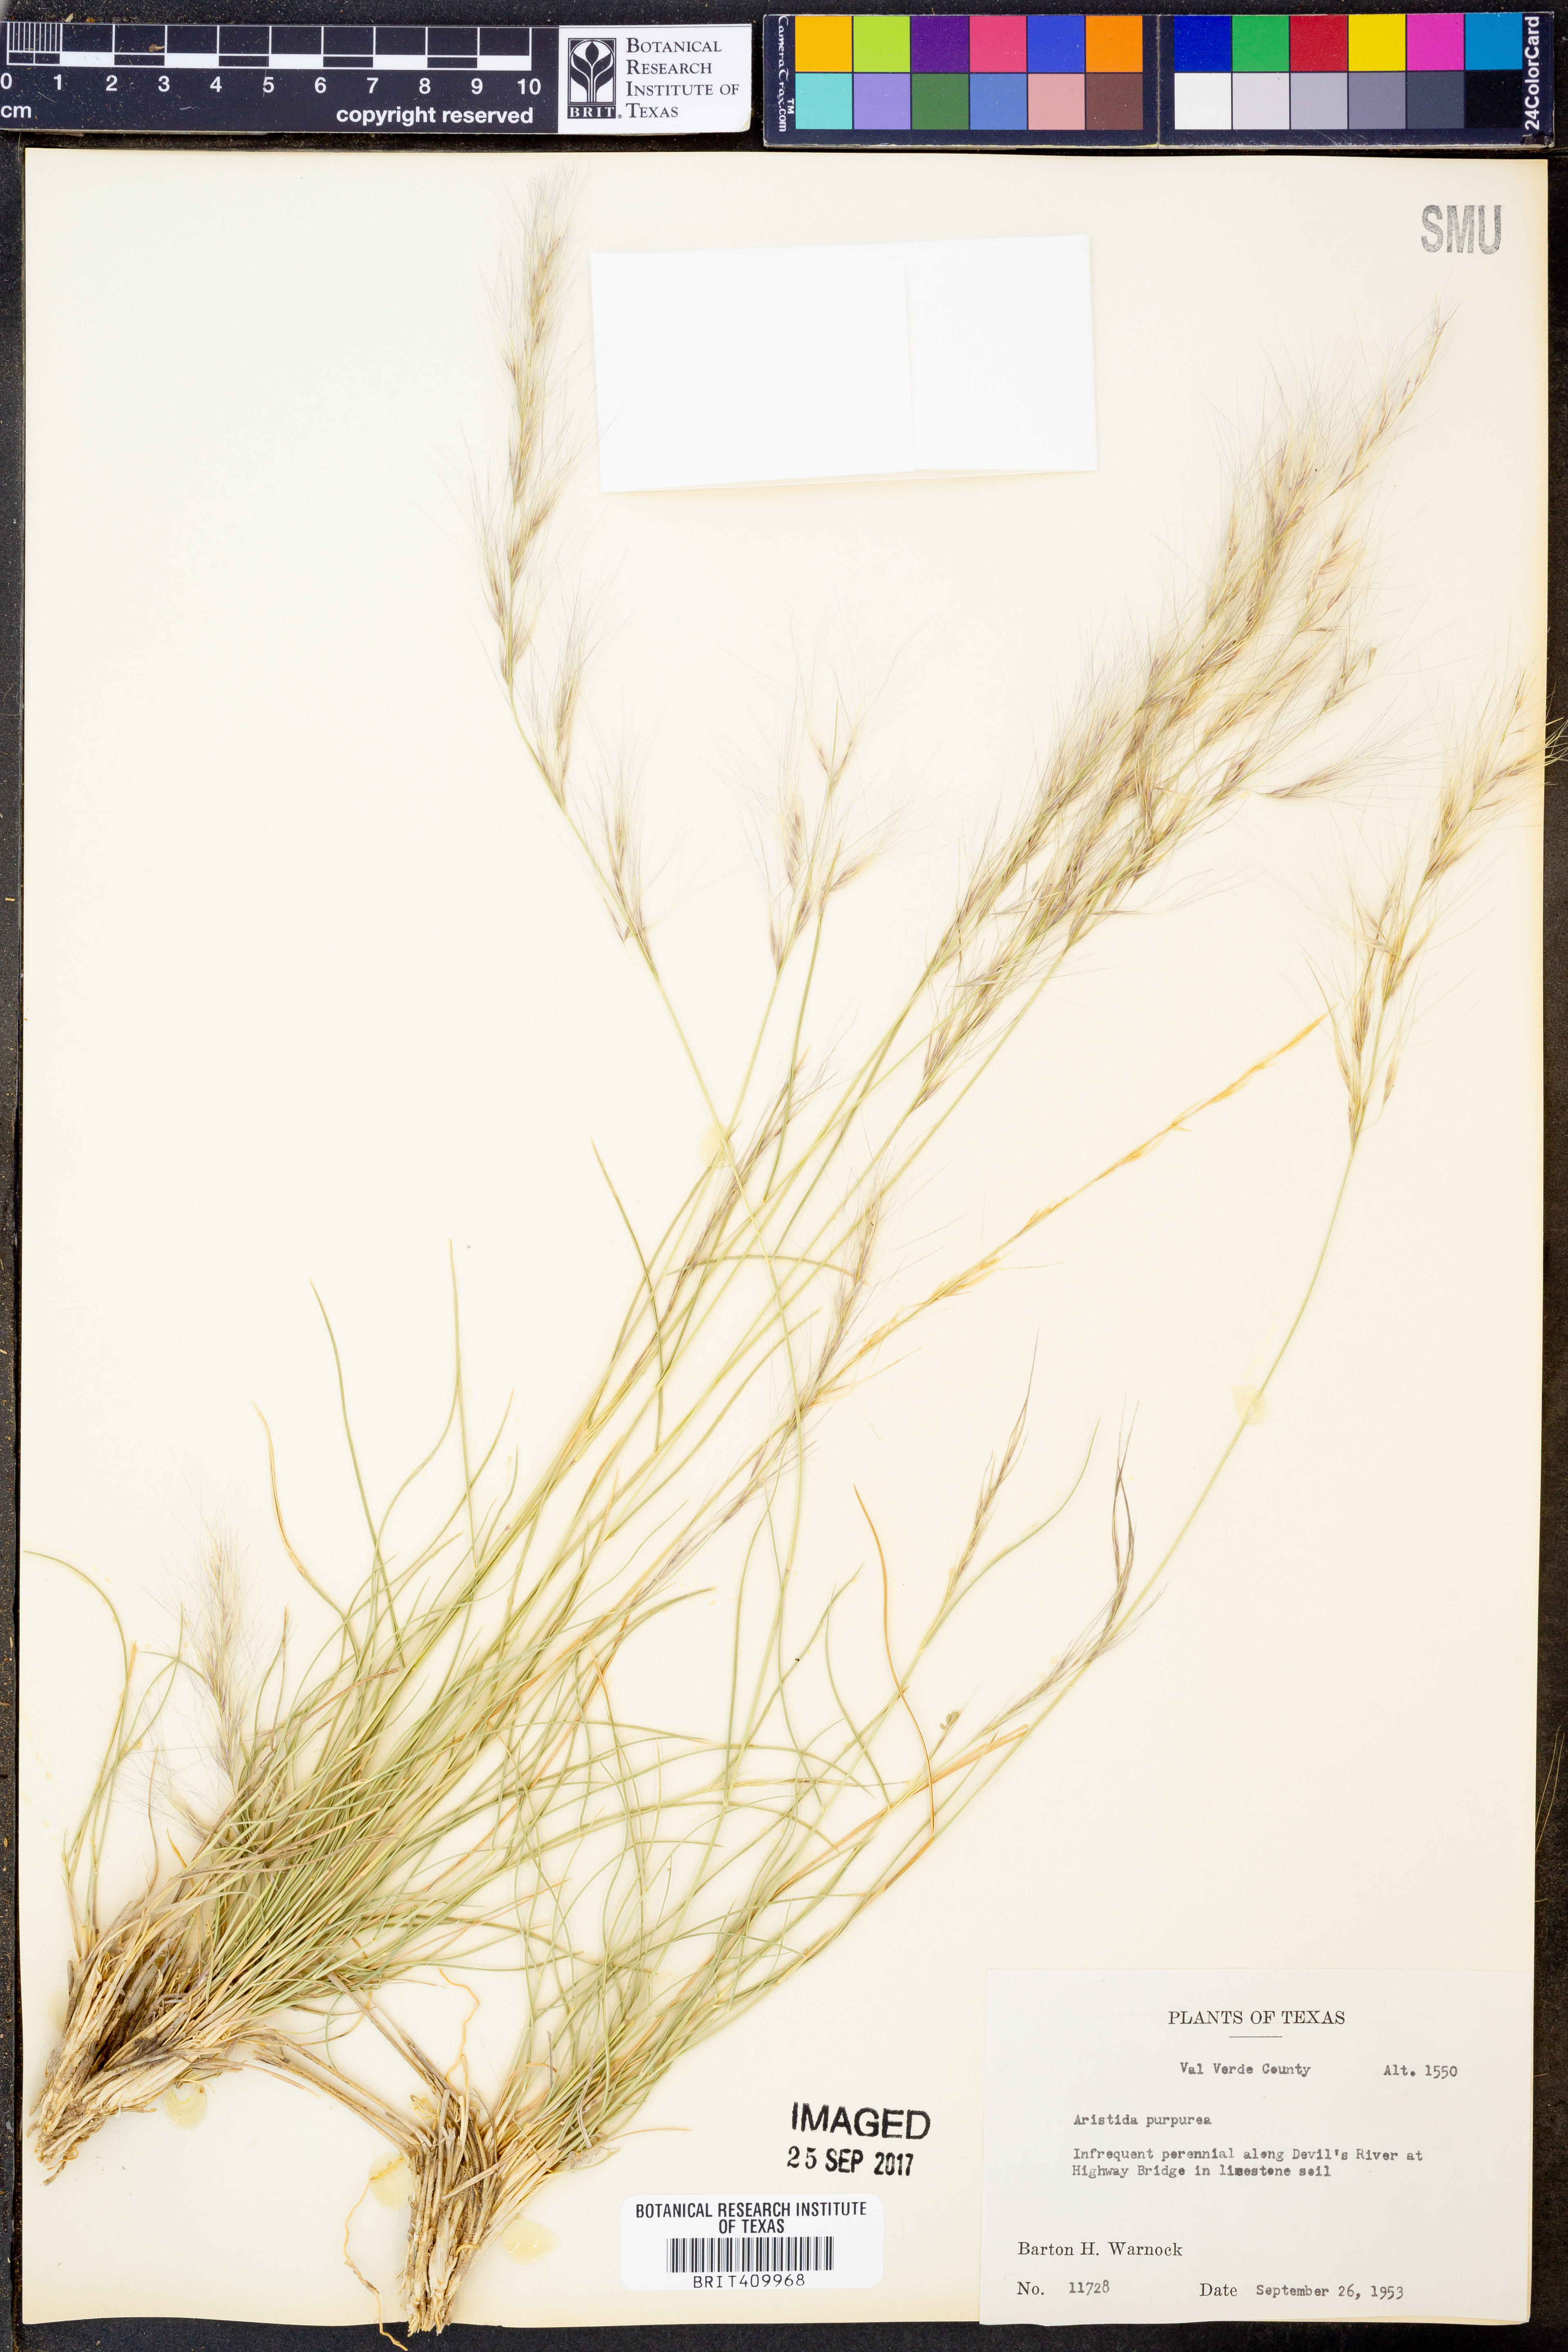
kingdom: Plantae
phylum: Tracheophyta
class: Liliopsida
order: Poales
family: Poaceae
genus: Aristida
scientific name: Aristida purpurea
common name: Purple threeawn
